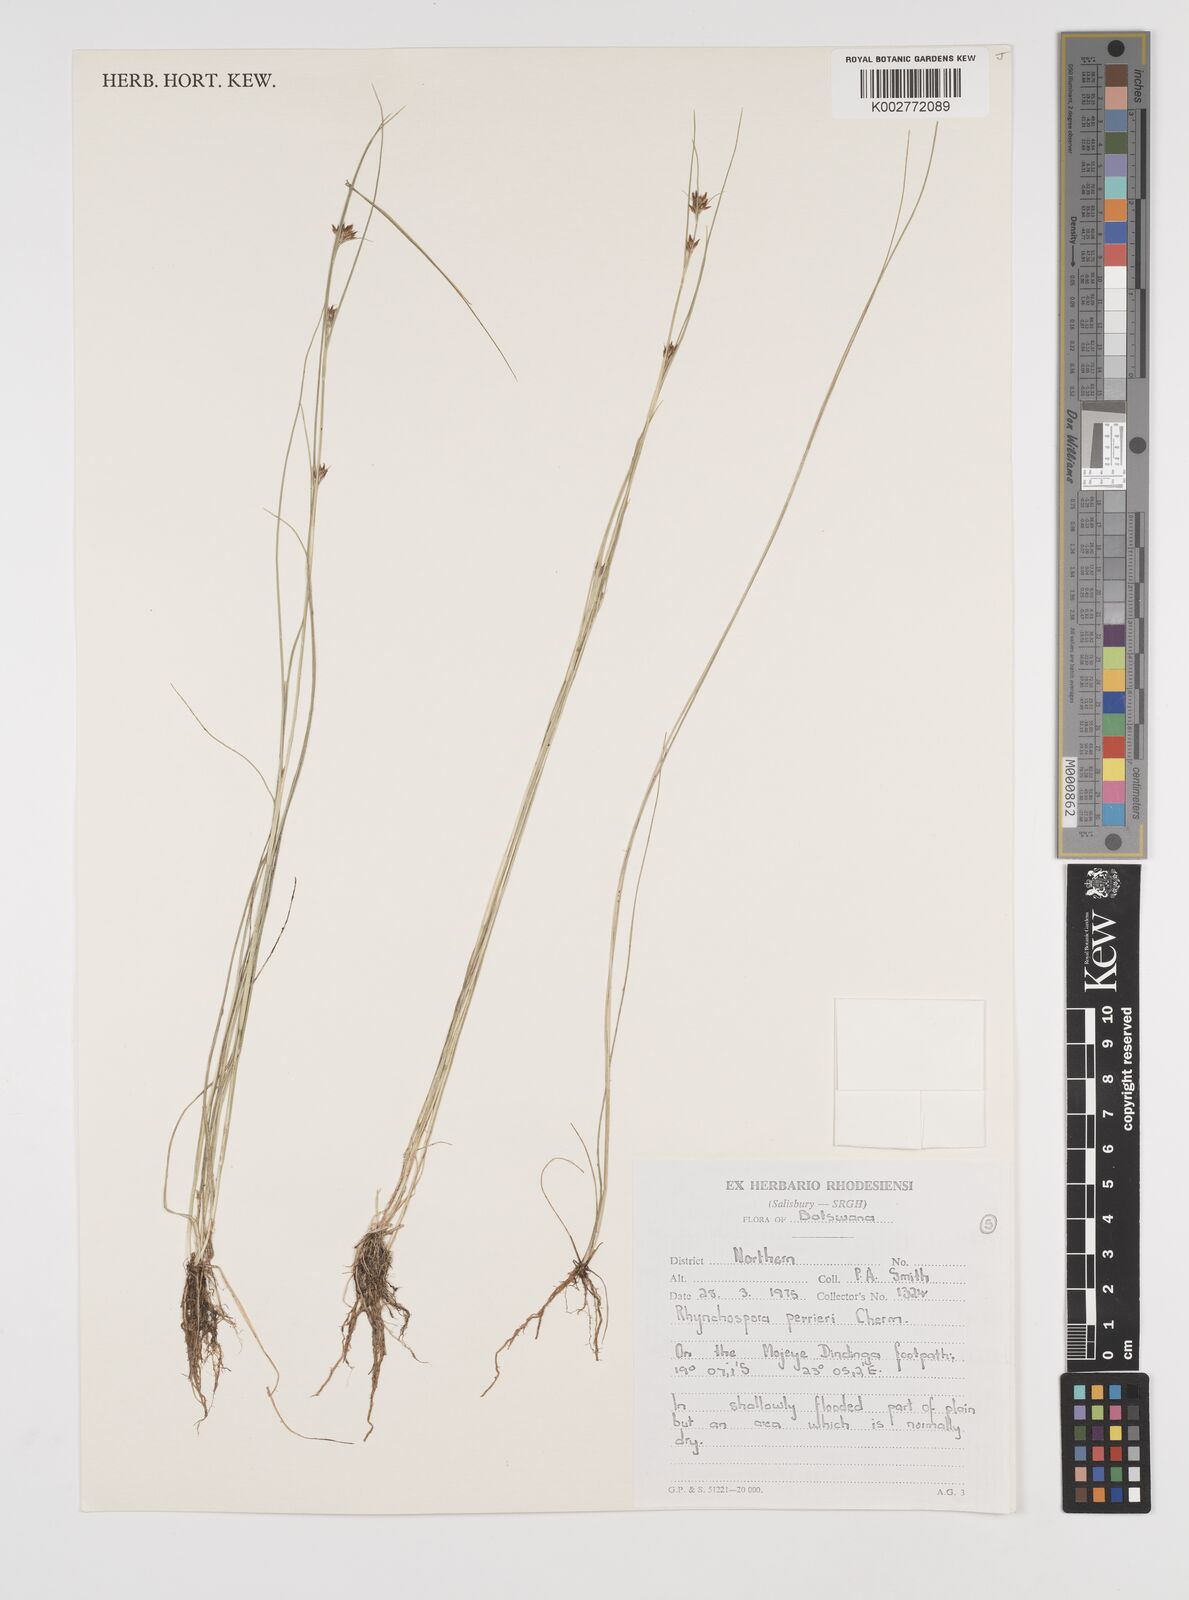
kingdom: Plantae
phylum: Tracheophyta
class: Liliopsida
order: Poales
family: Cyperaceae
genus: Rhynchospora
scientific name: Rhynchospora perrieri
